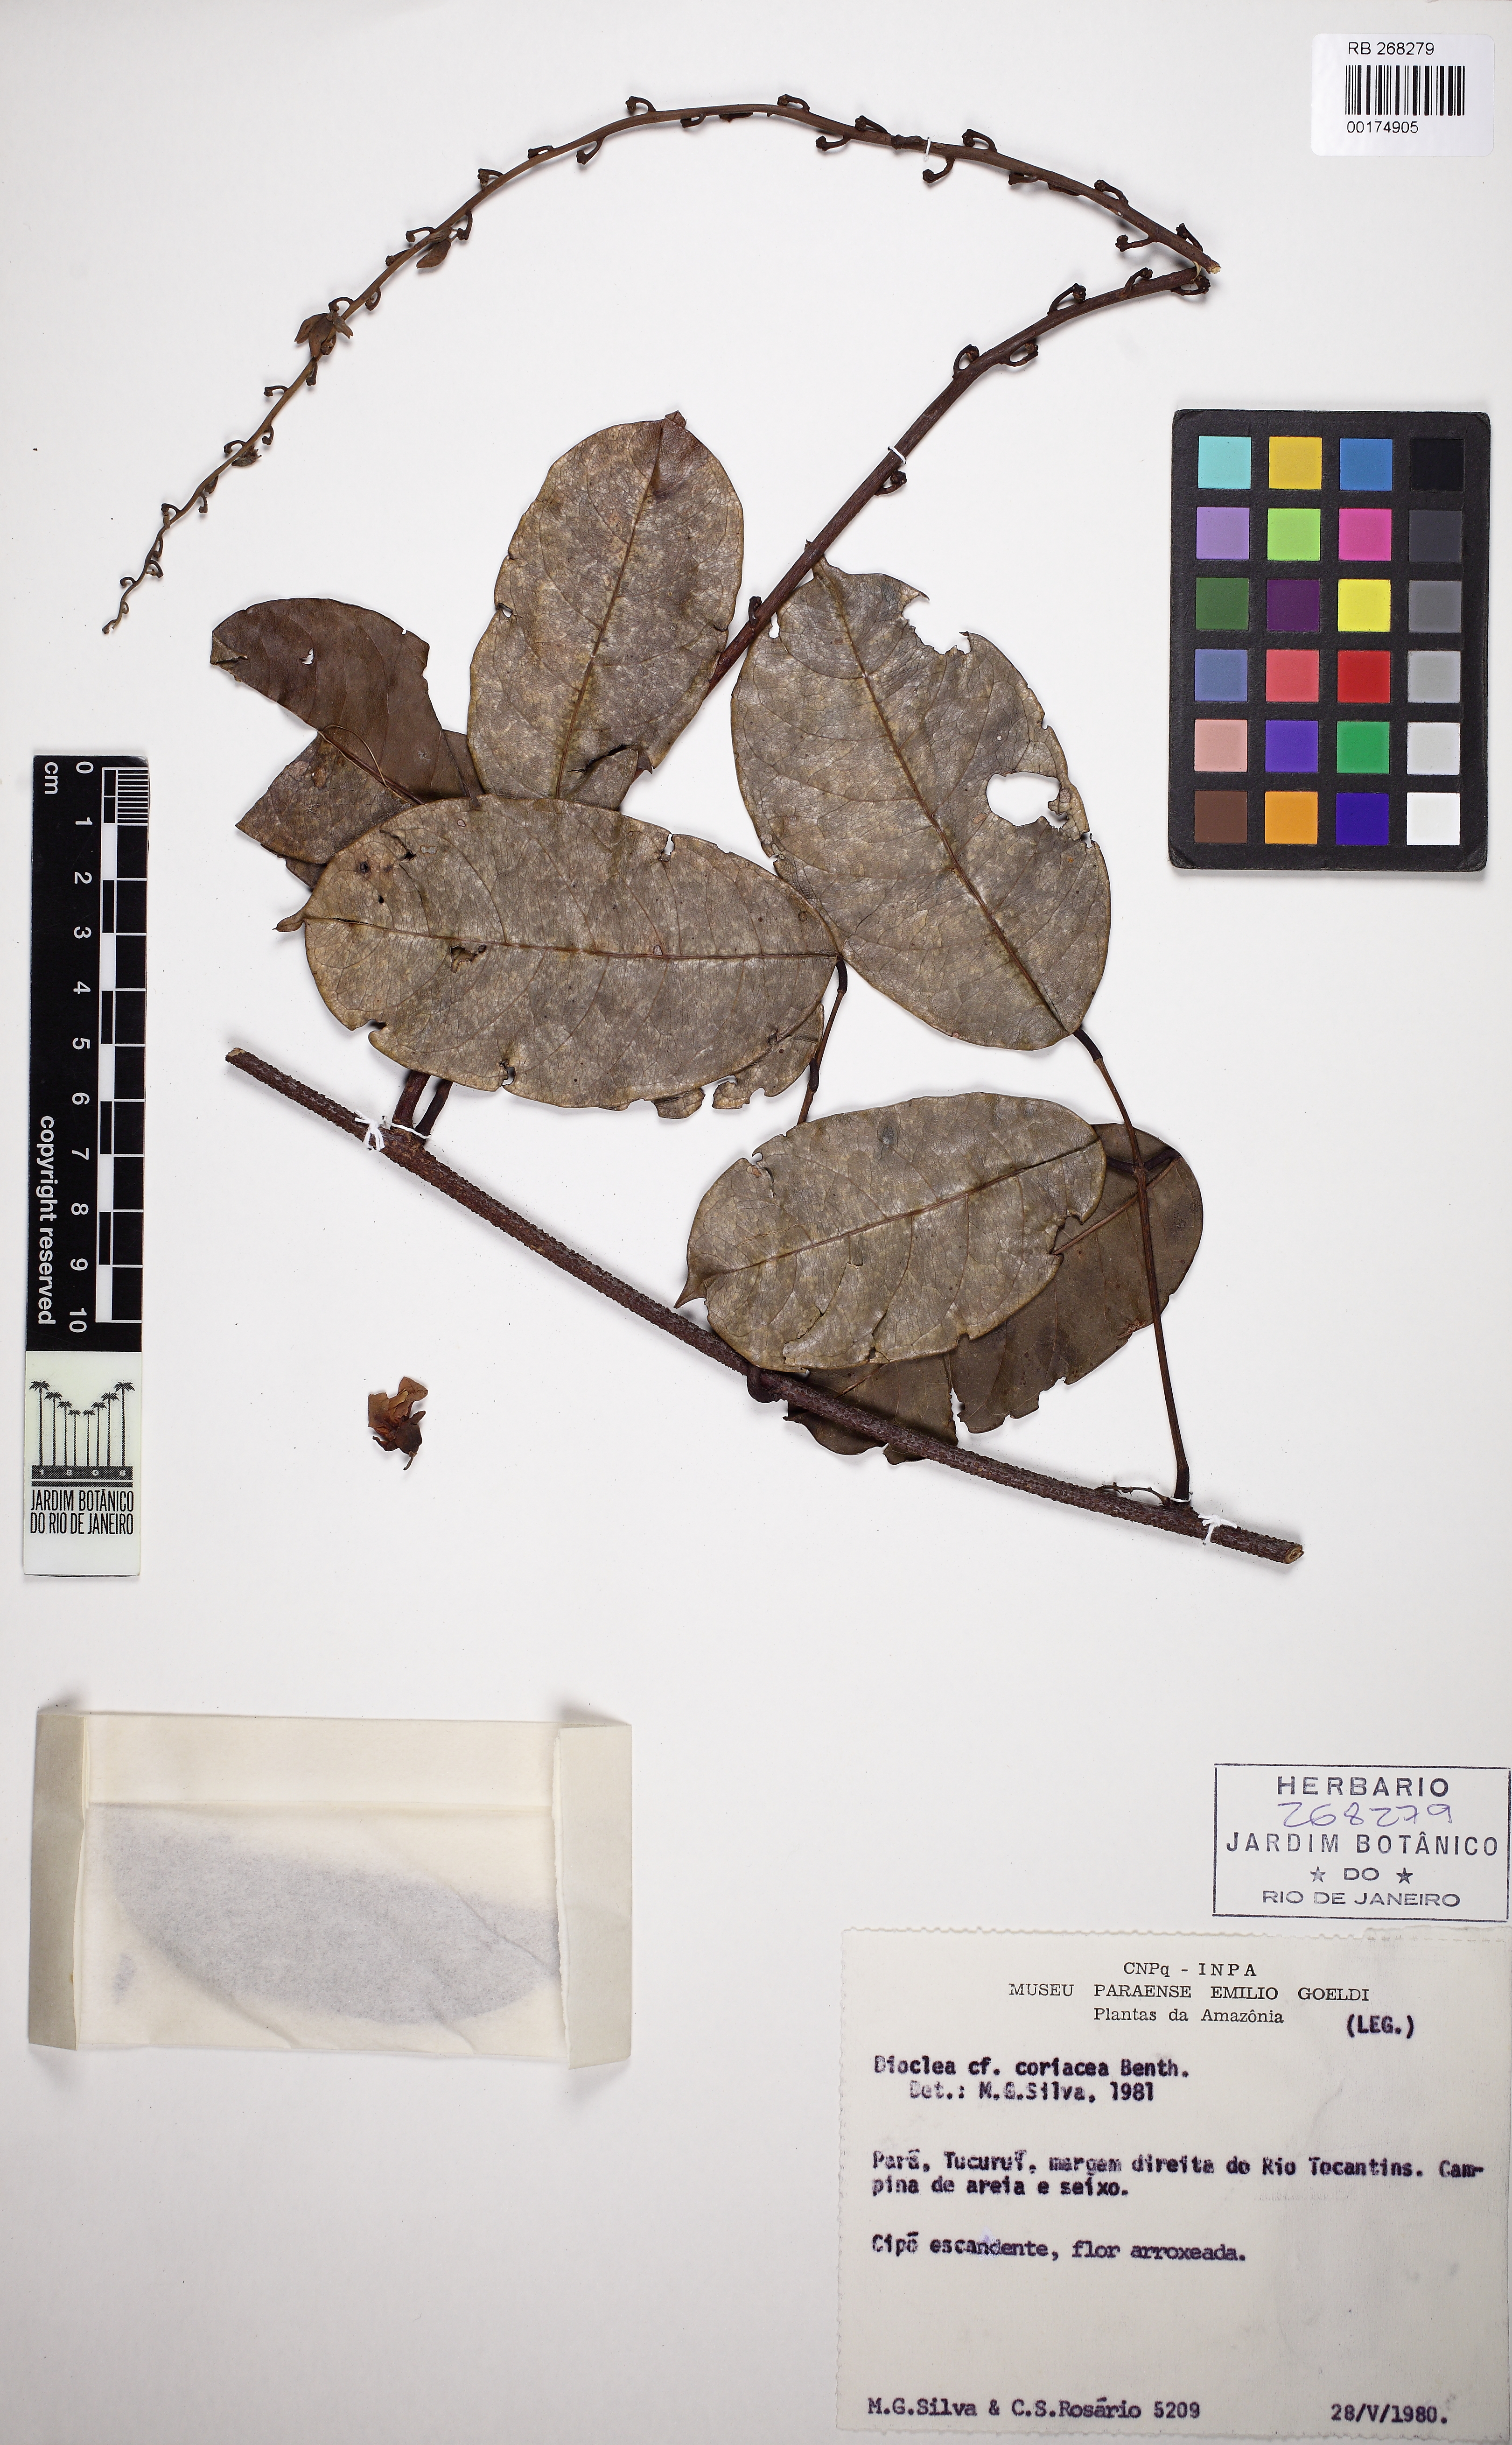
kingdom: Plantae
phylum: Tracheophyta
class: Magnoliopsida
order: Fabales
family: Fabaceae
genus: Macropsychanthus
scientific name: Macropsychanthus coriaceus
